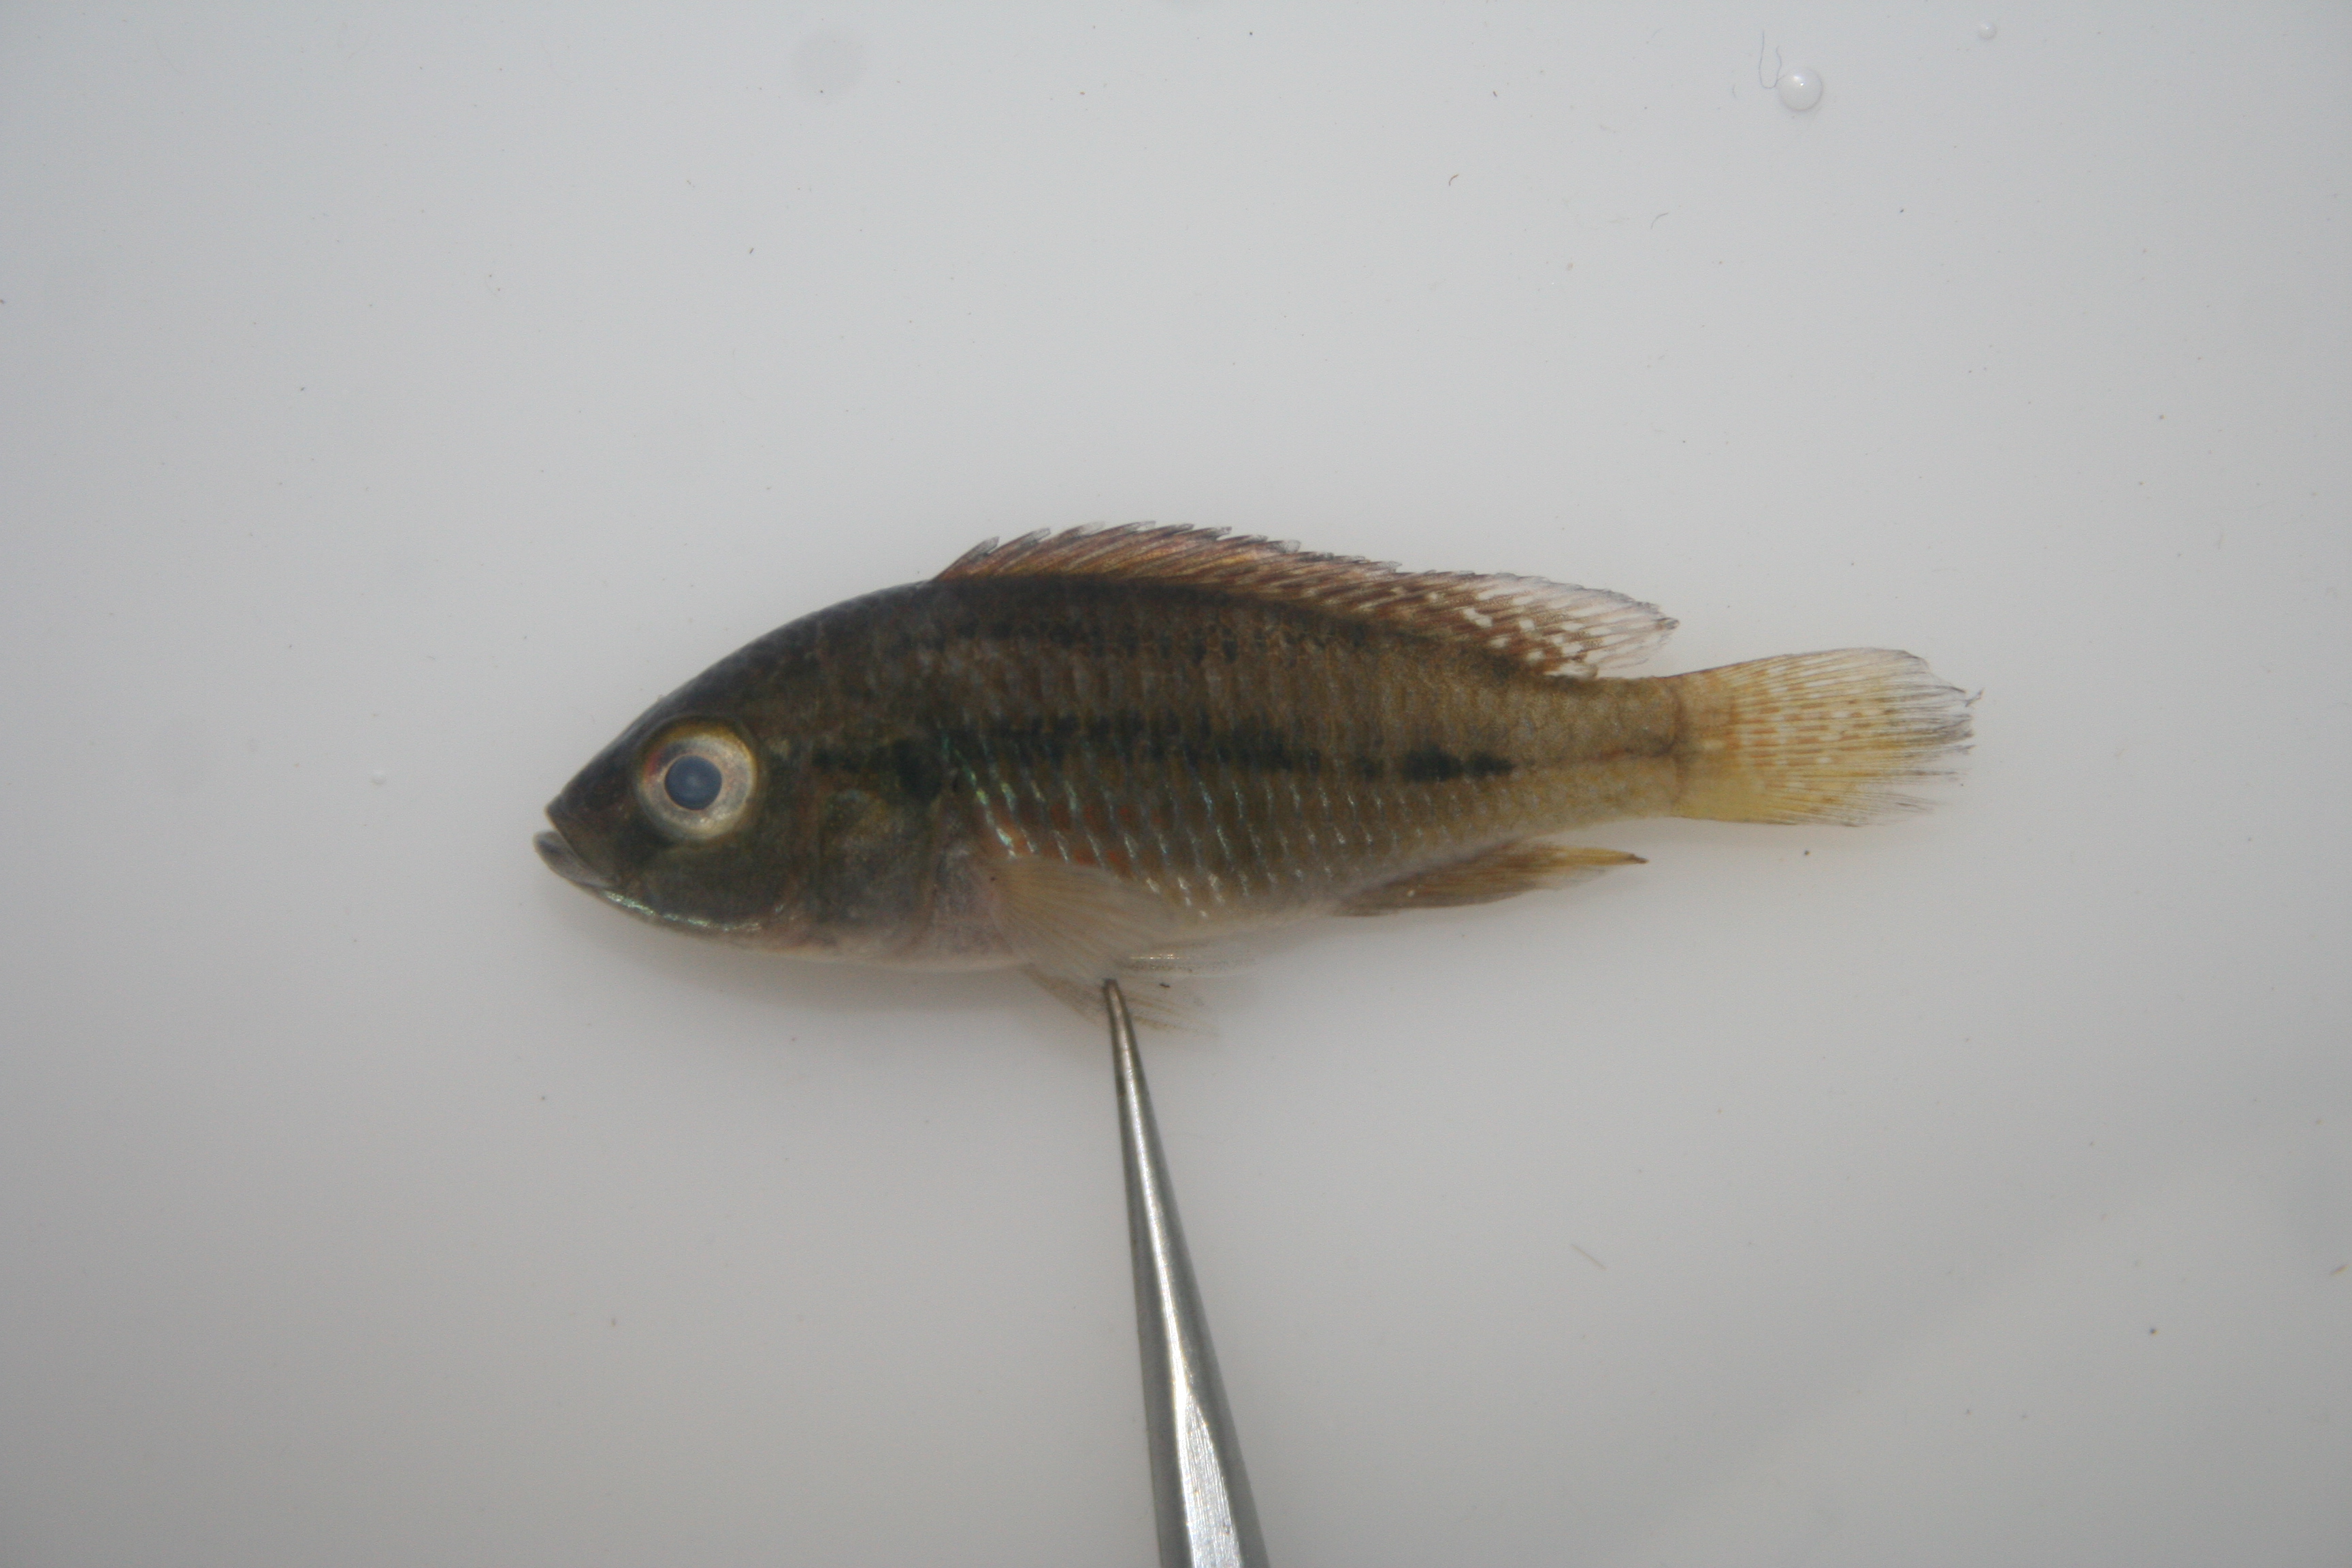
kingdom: Animalia
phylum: Chordata
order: Perciformes
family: Cichlidae
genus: Pseudocrenilabrus
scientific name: Pseudocrenilabrus philander
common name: Southern mouthbrooder
